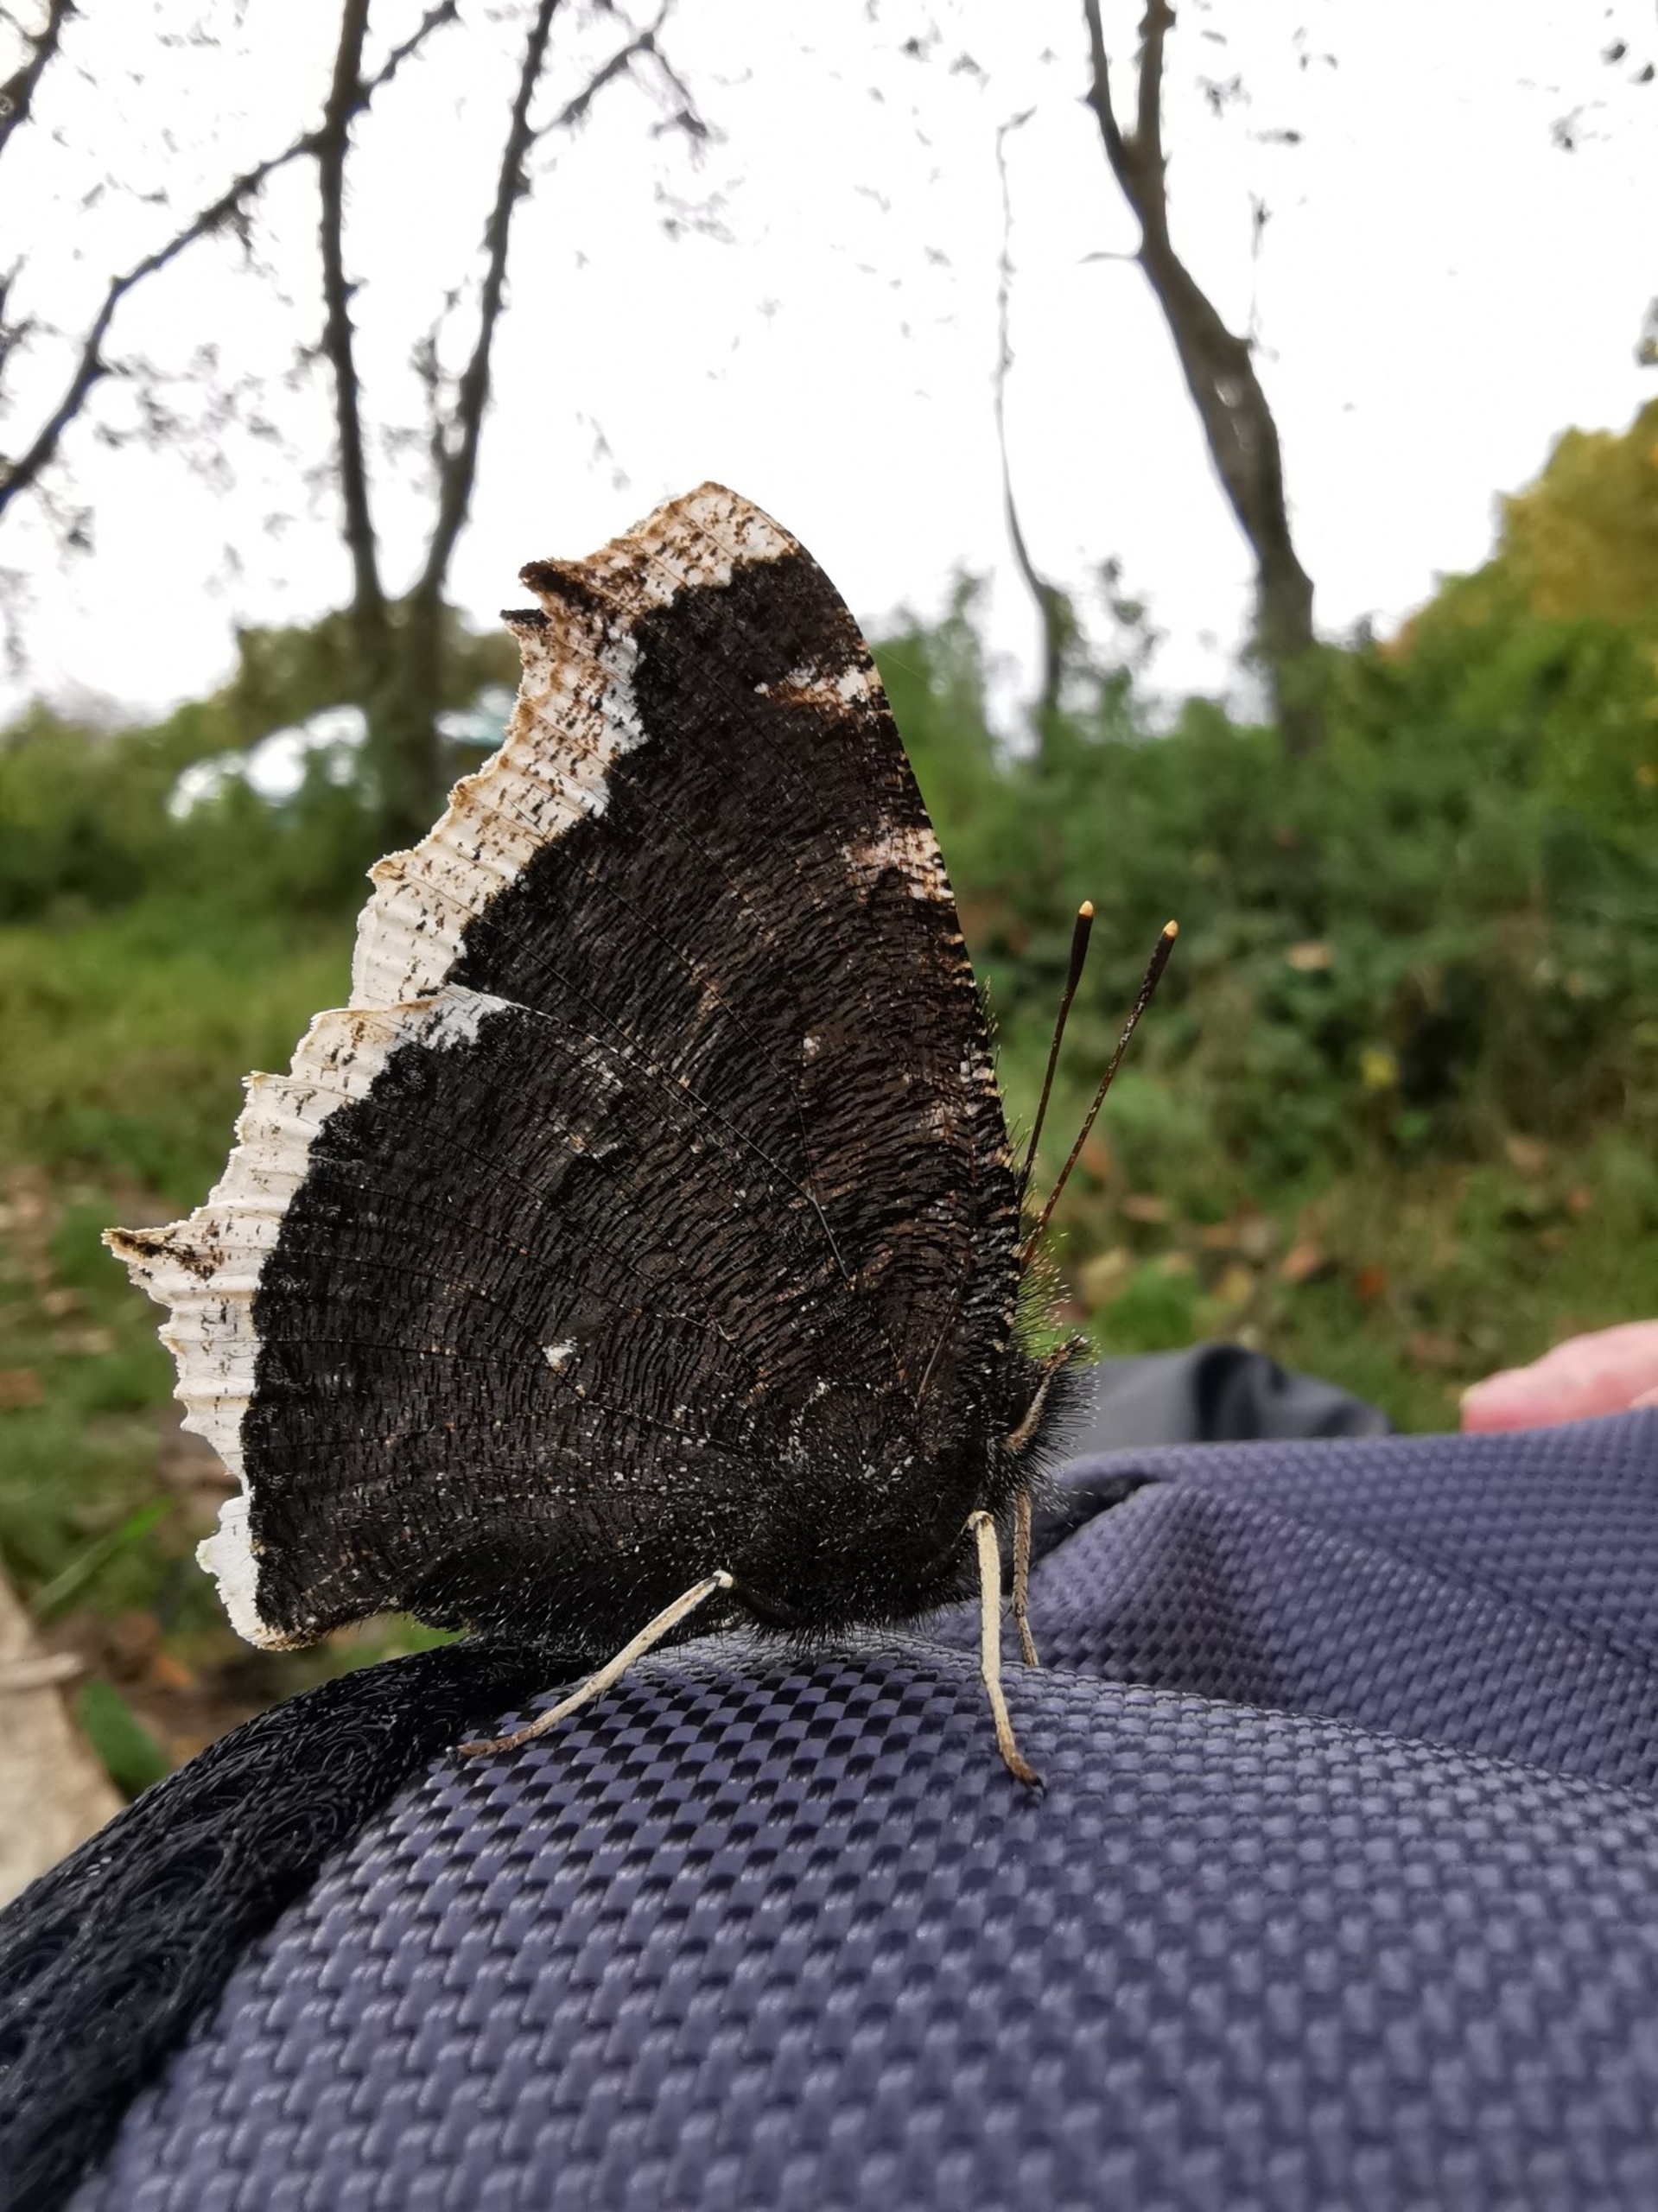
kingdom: Animalia
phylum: Arthropoda
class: Insecta
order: Lepidoptera
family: Nymphalidae
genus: Nymphalis
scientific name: Nymphalis antiopa
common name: Sørgekåbe
